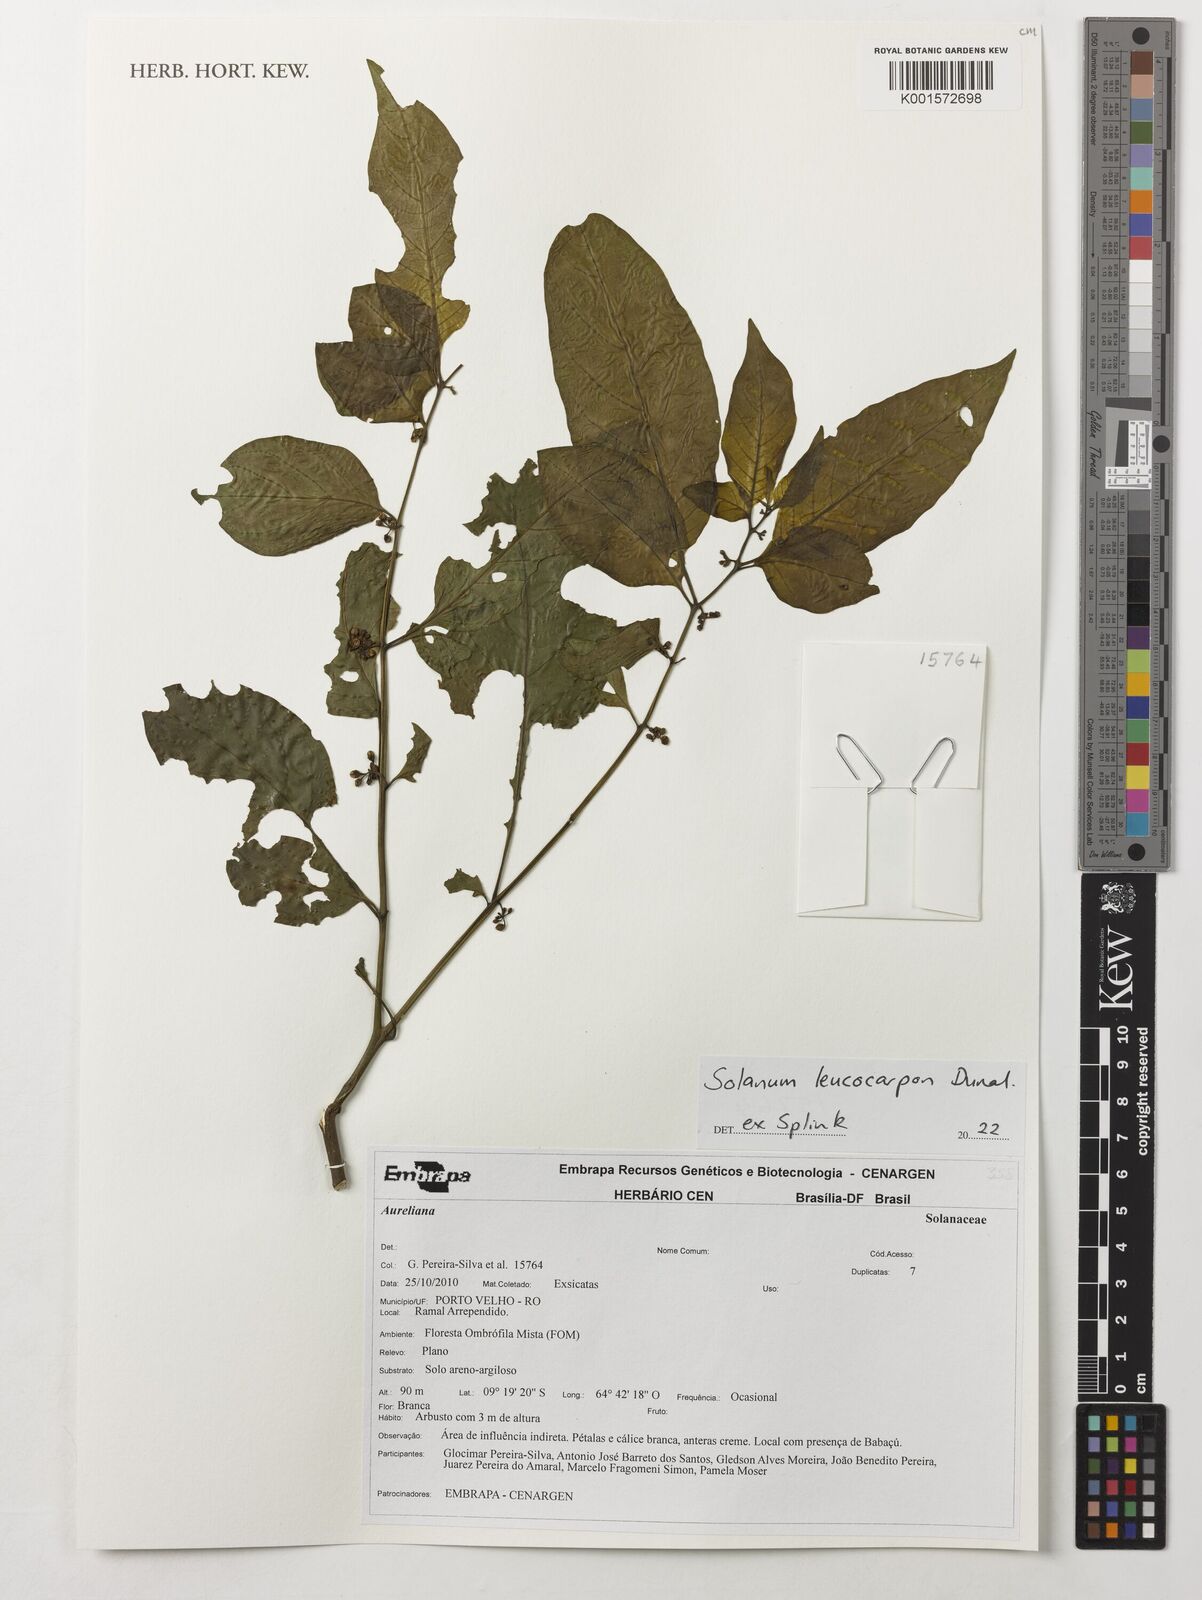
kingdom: Plantae
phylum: Tracheophyta
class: Magnoliopsida
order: Solanales
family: Solanaceae
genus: Solanum
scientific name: Solanum leucocarpon
